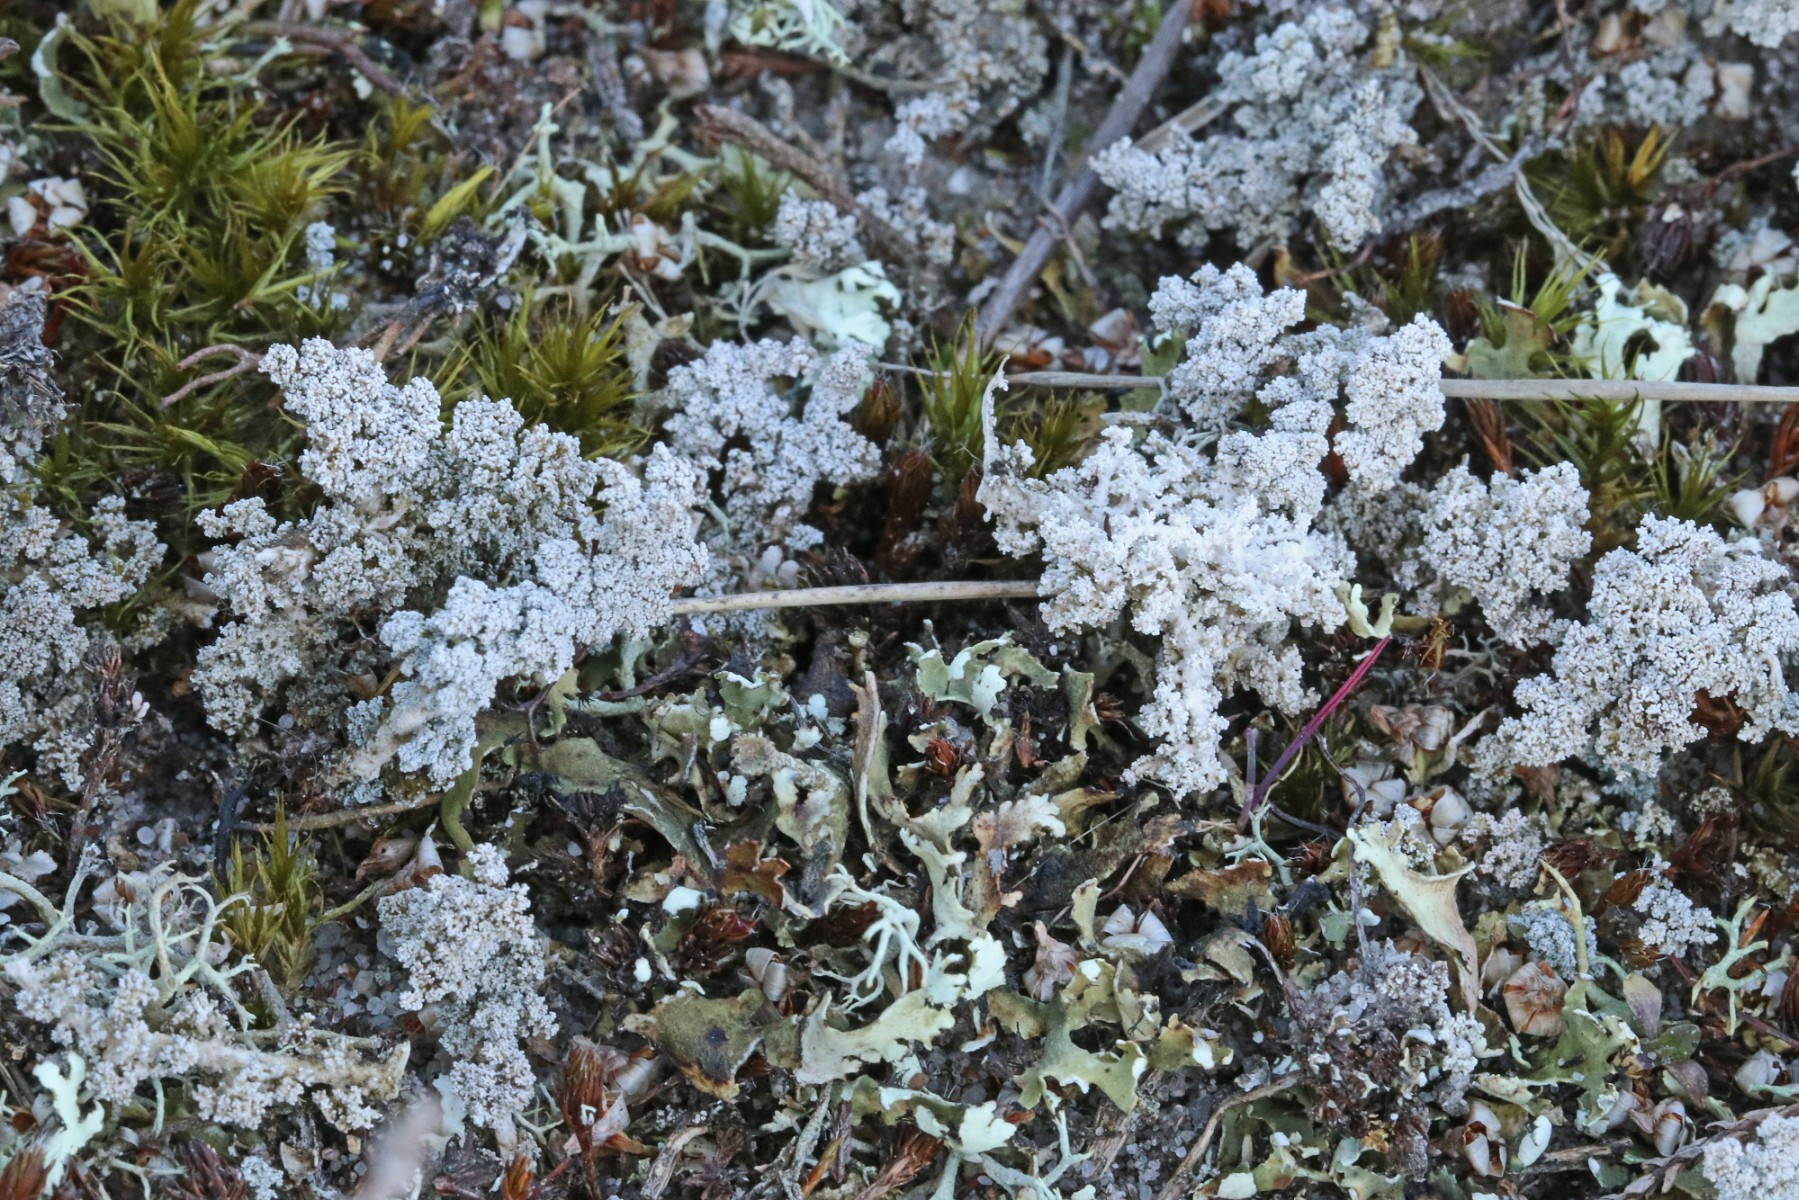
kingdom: Fungi
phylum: Ascomycota
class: Lecanoromycetes
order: Lecanorales
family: Stereocaulaceae
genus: Stereocaulon
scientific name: Stereocaulon saxatile
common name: klit-korallav
